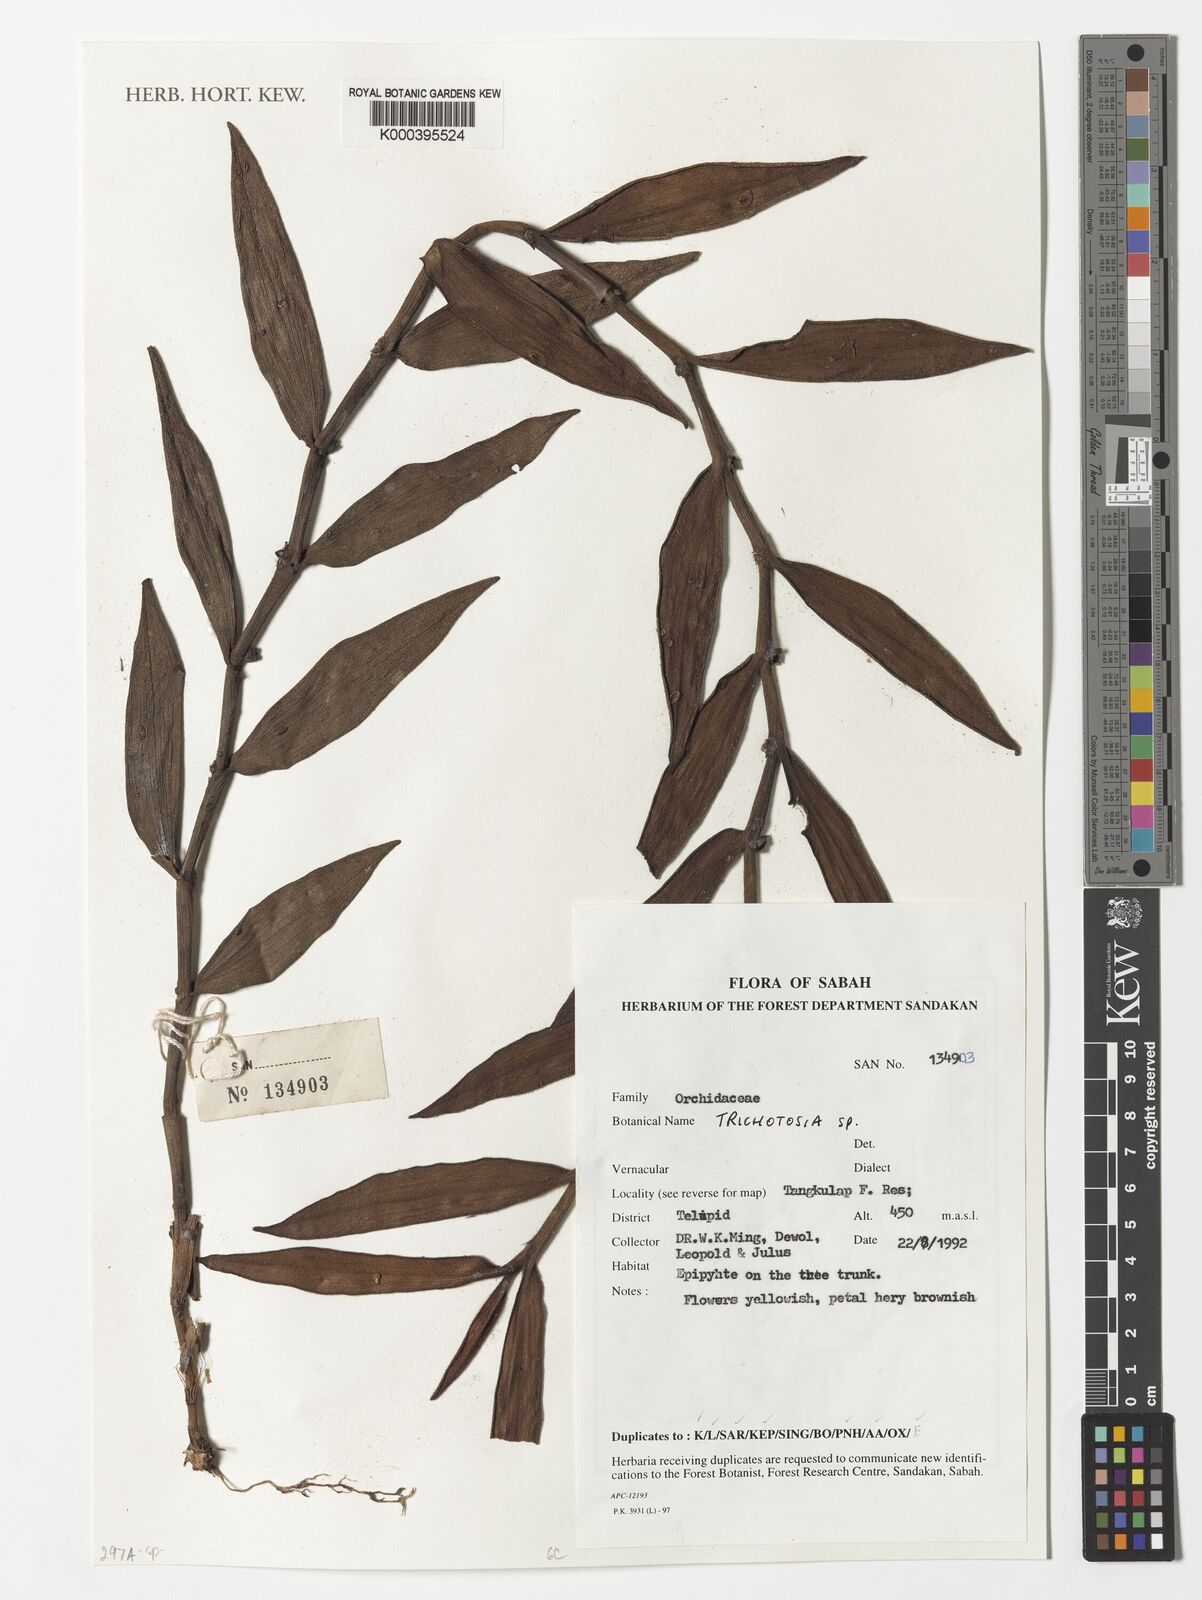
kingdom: Plantae
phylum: Tracheophyta
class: Liliopsida
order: Asparagales
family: Orchidaceae
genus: Trichotosia
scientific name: Trichotosia
